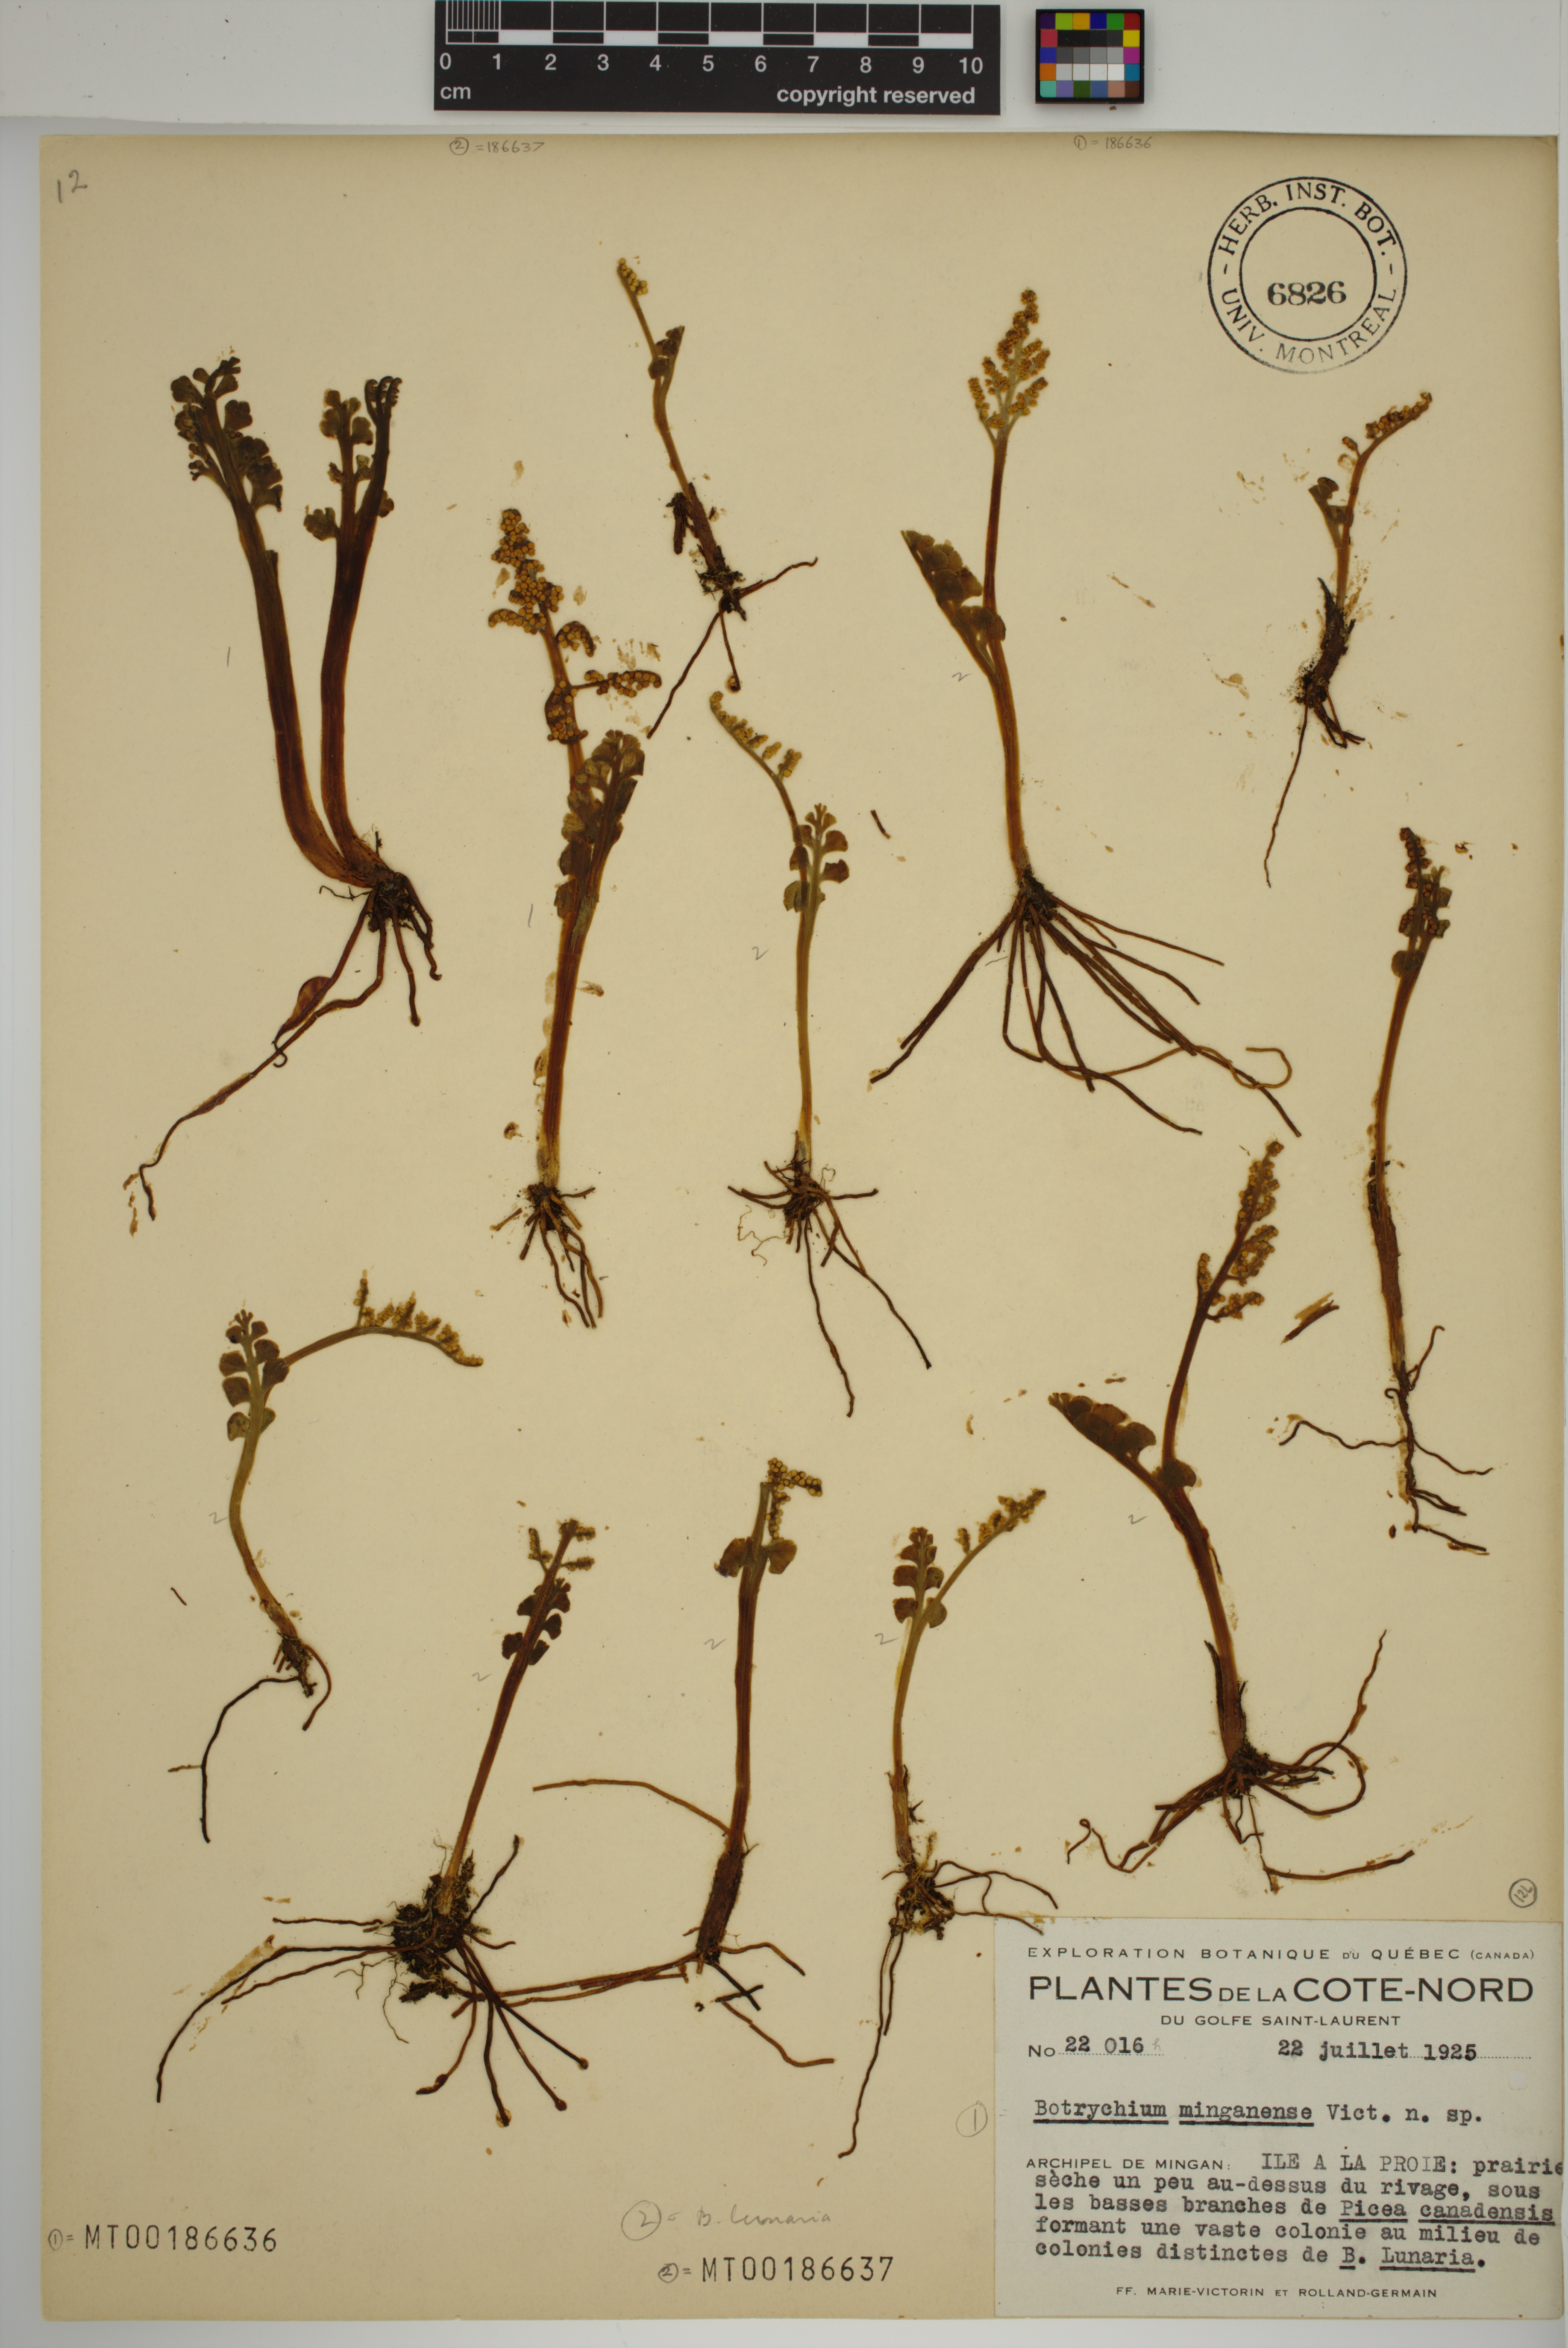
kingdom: Plantae
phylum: Tracheophyta
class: Polypodiopsida
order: Ophioglossales
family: Ophioglossaceae
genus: Botrychium
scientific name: Botrychium minganense
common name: Mingan grapefern
